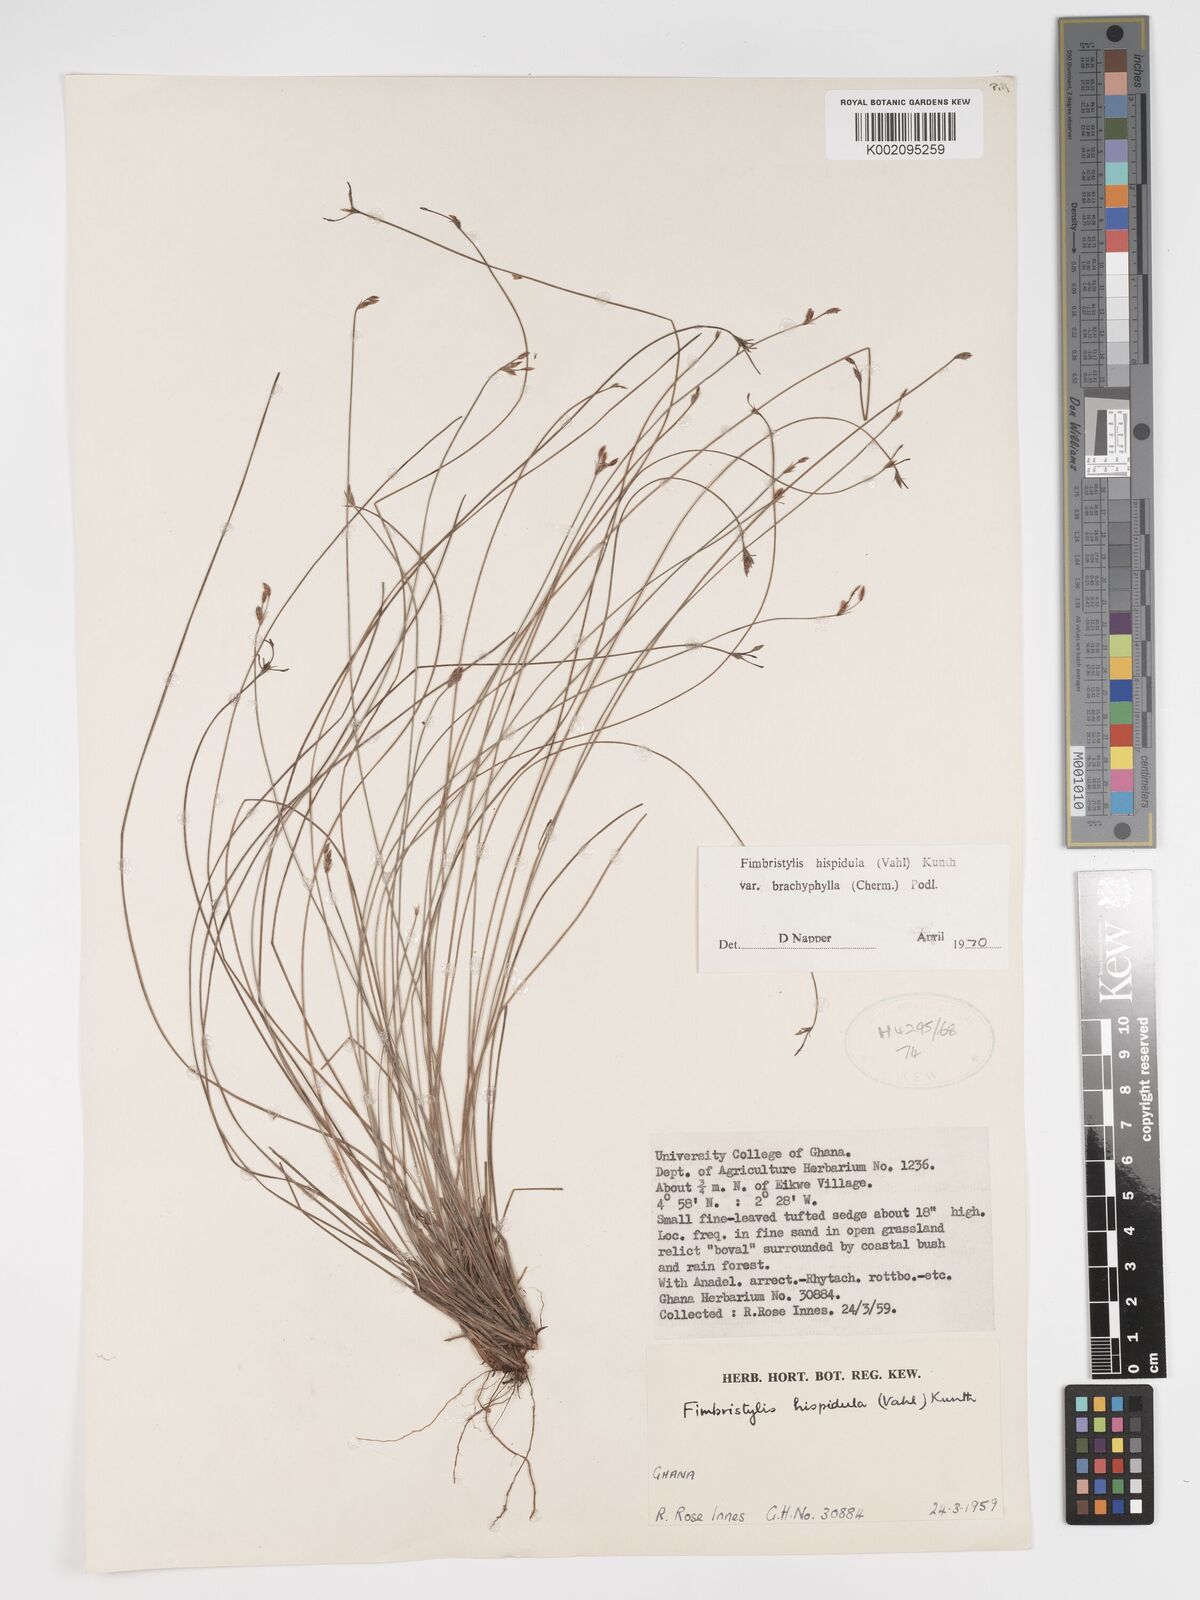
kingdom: Plantae
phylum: Tracheophyta
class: Liliopsida
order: Poales
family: Cyperaceae
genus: Bulbostylis
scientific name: Bulbostylis hispidula
